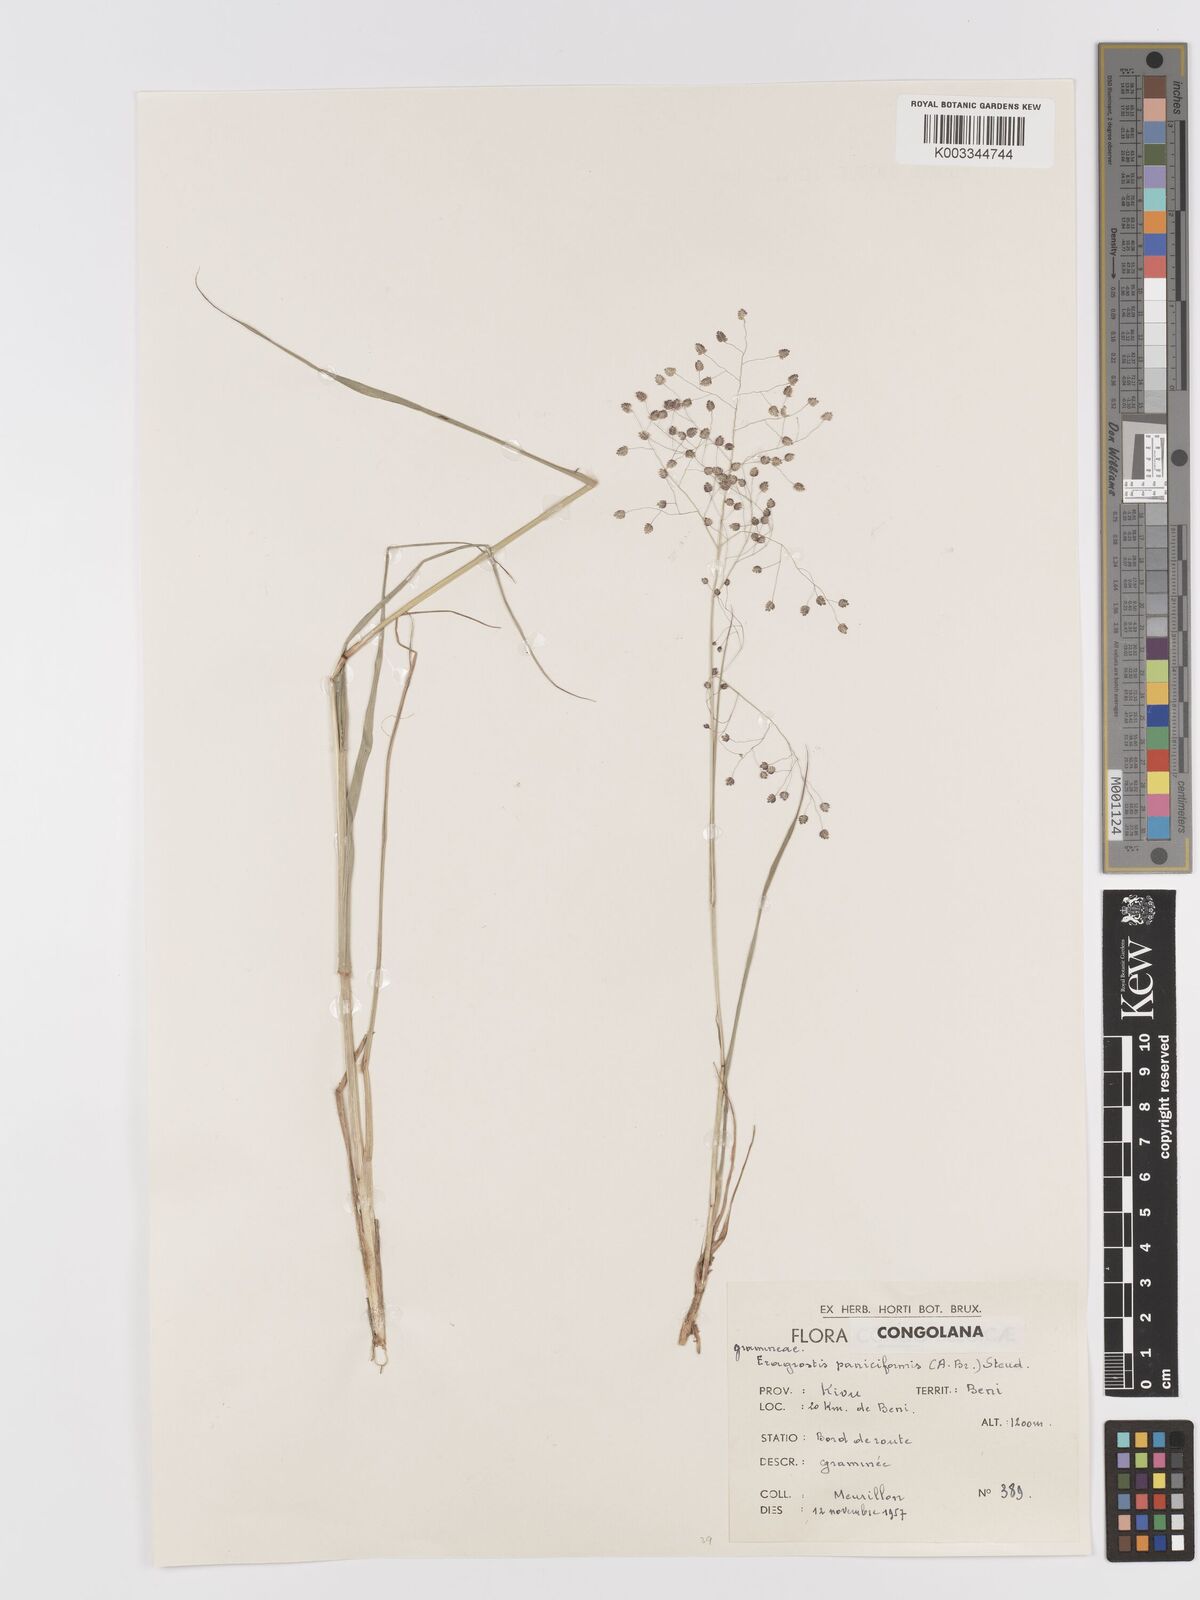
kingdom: Plantae
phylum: Tracheophyta
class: Liliopsida
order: Poales
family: Poaceae
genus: Eragrostis
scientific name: Eragrostis exasperata
